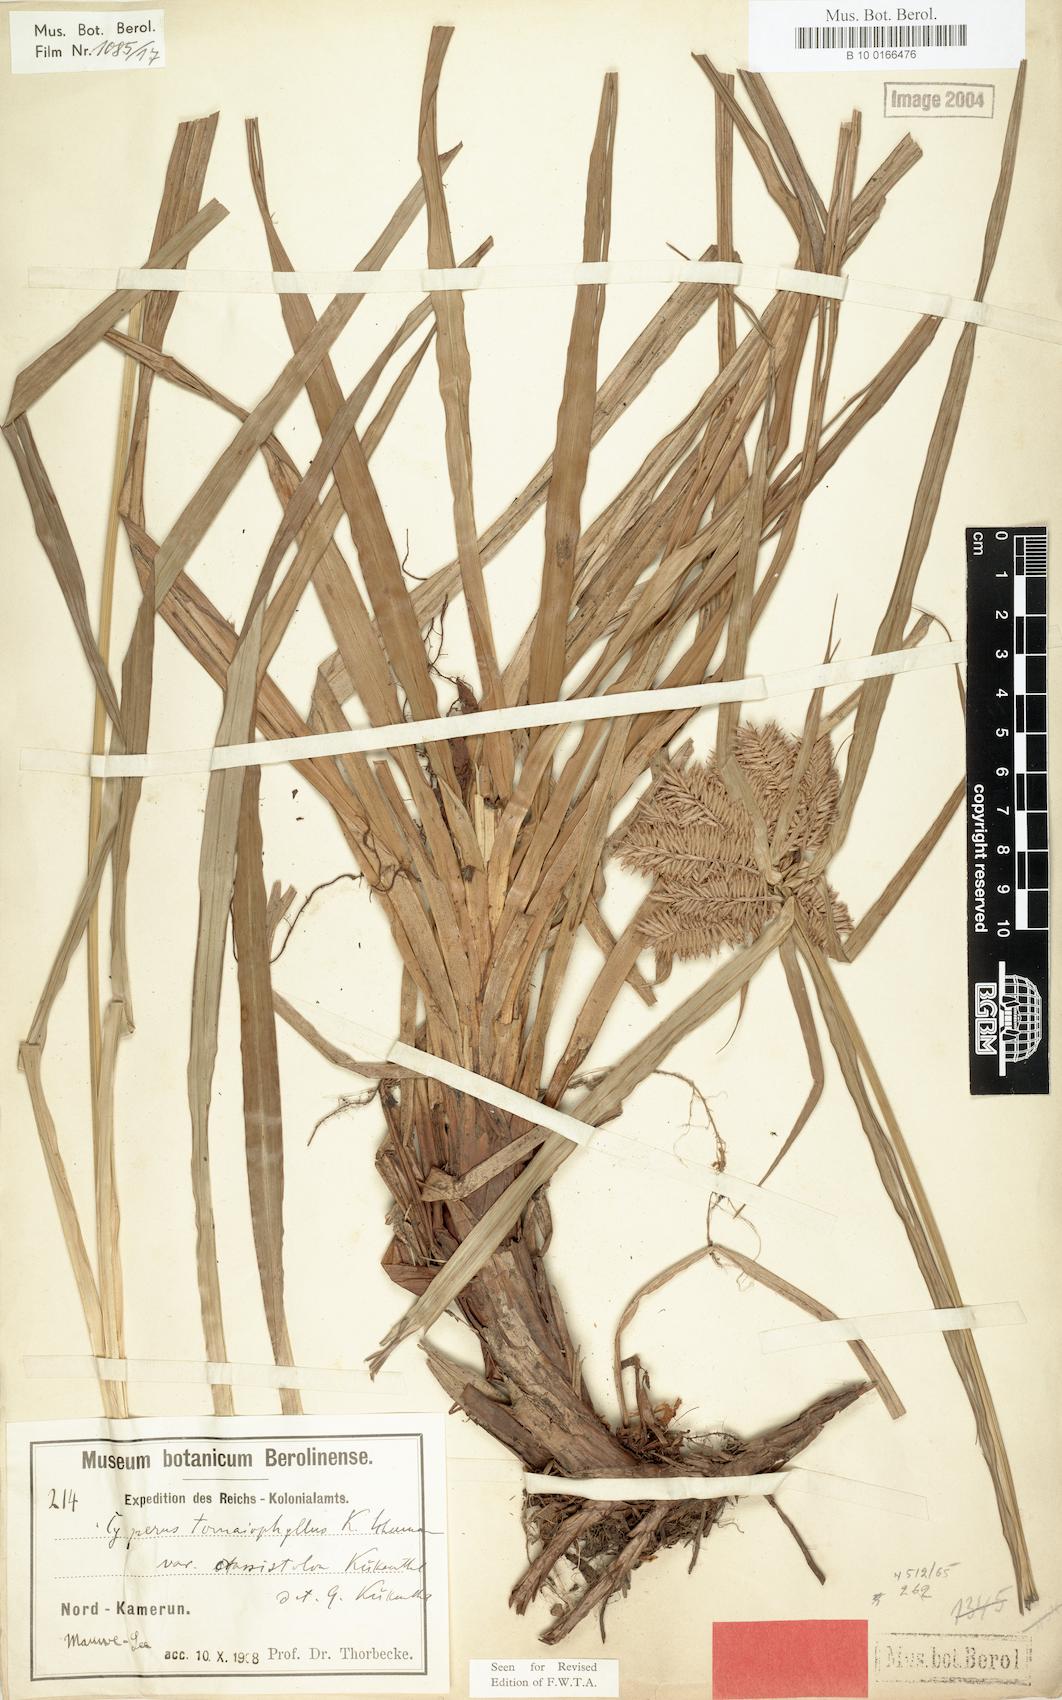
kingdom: Plantae
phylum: Tracheophyta
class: Liliopsida
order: Poales
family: Cyperaceae
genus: Cyperus
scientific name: Cyperus tomaiophyllus
